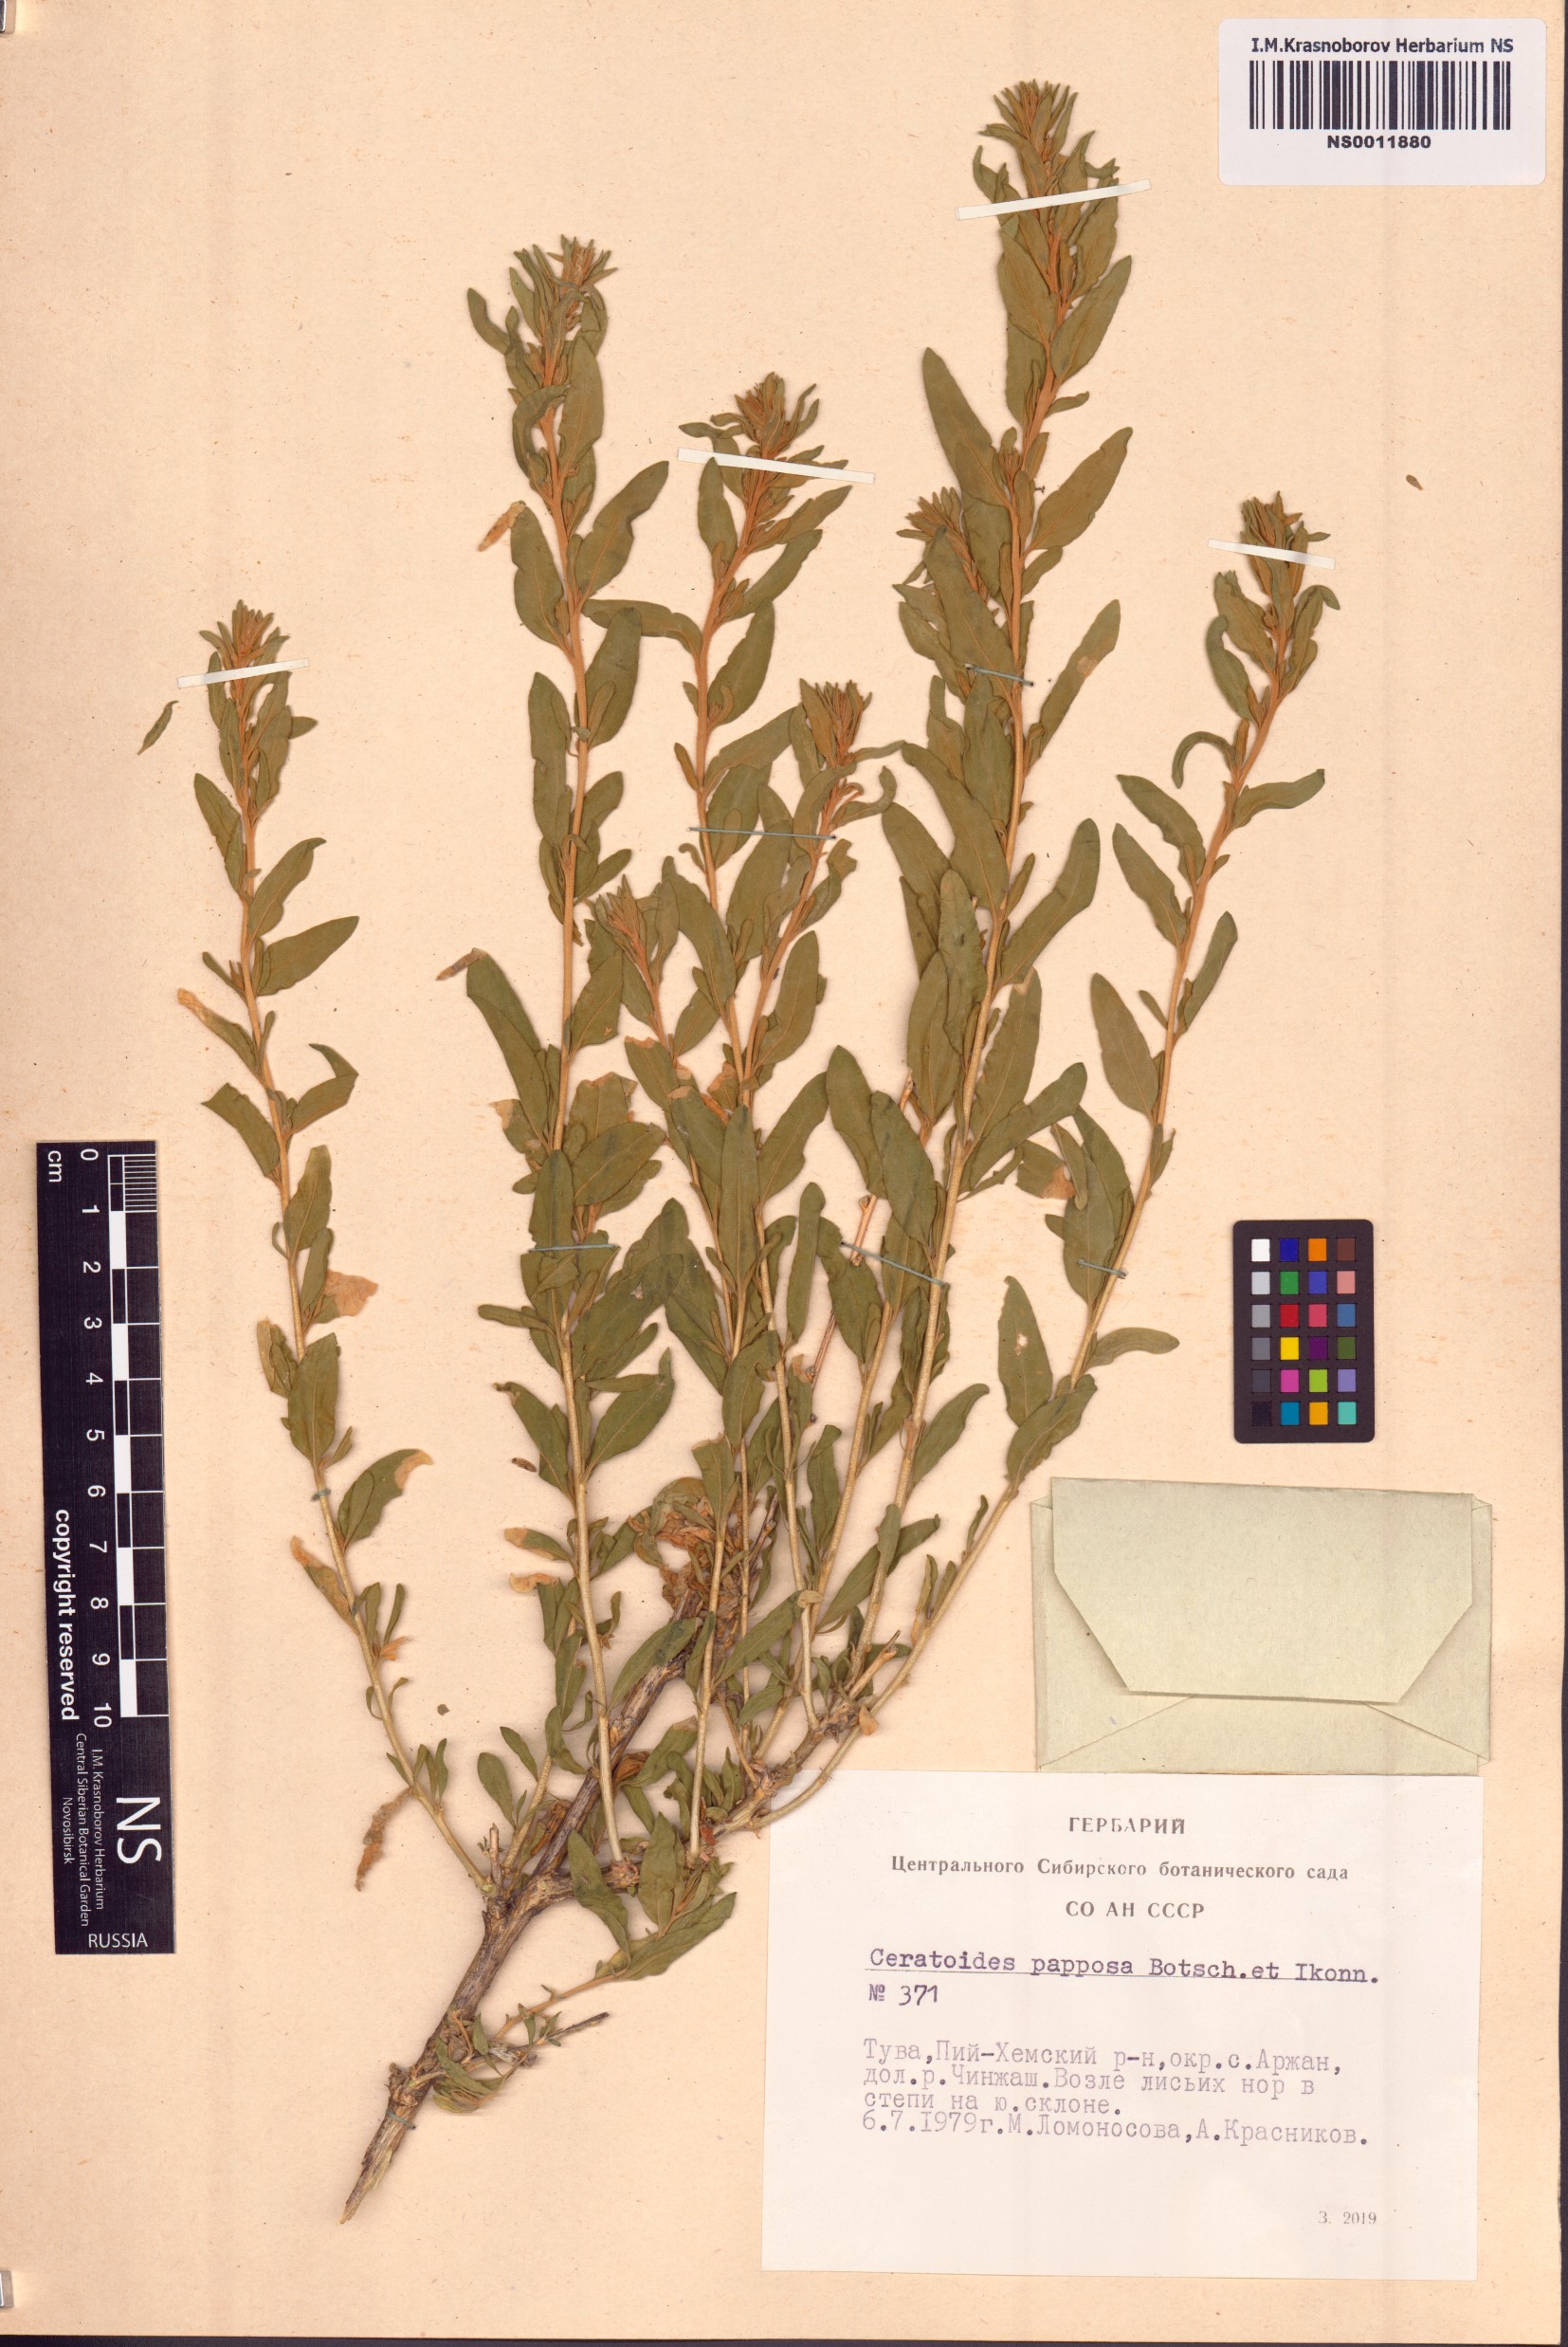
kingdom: Plantae
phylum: Tracheophyta
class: Magnoliopsida
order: Caryophyllales
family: Amaranthaceae
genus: Krascheninnikovia
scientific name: Krascheninnikovia ceratoides
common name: Pamirian winterfat
